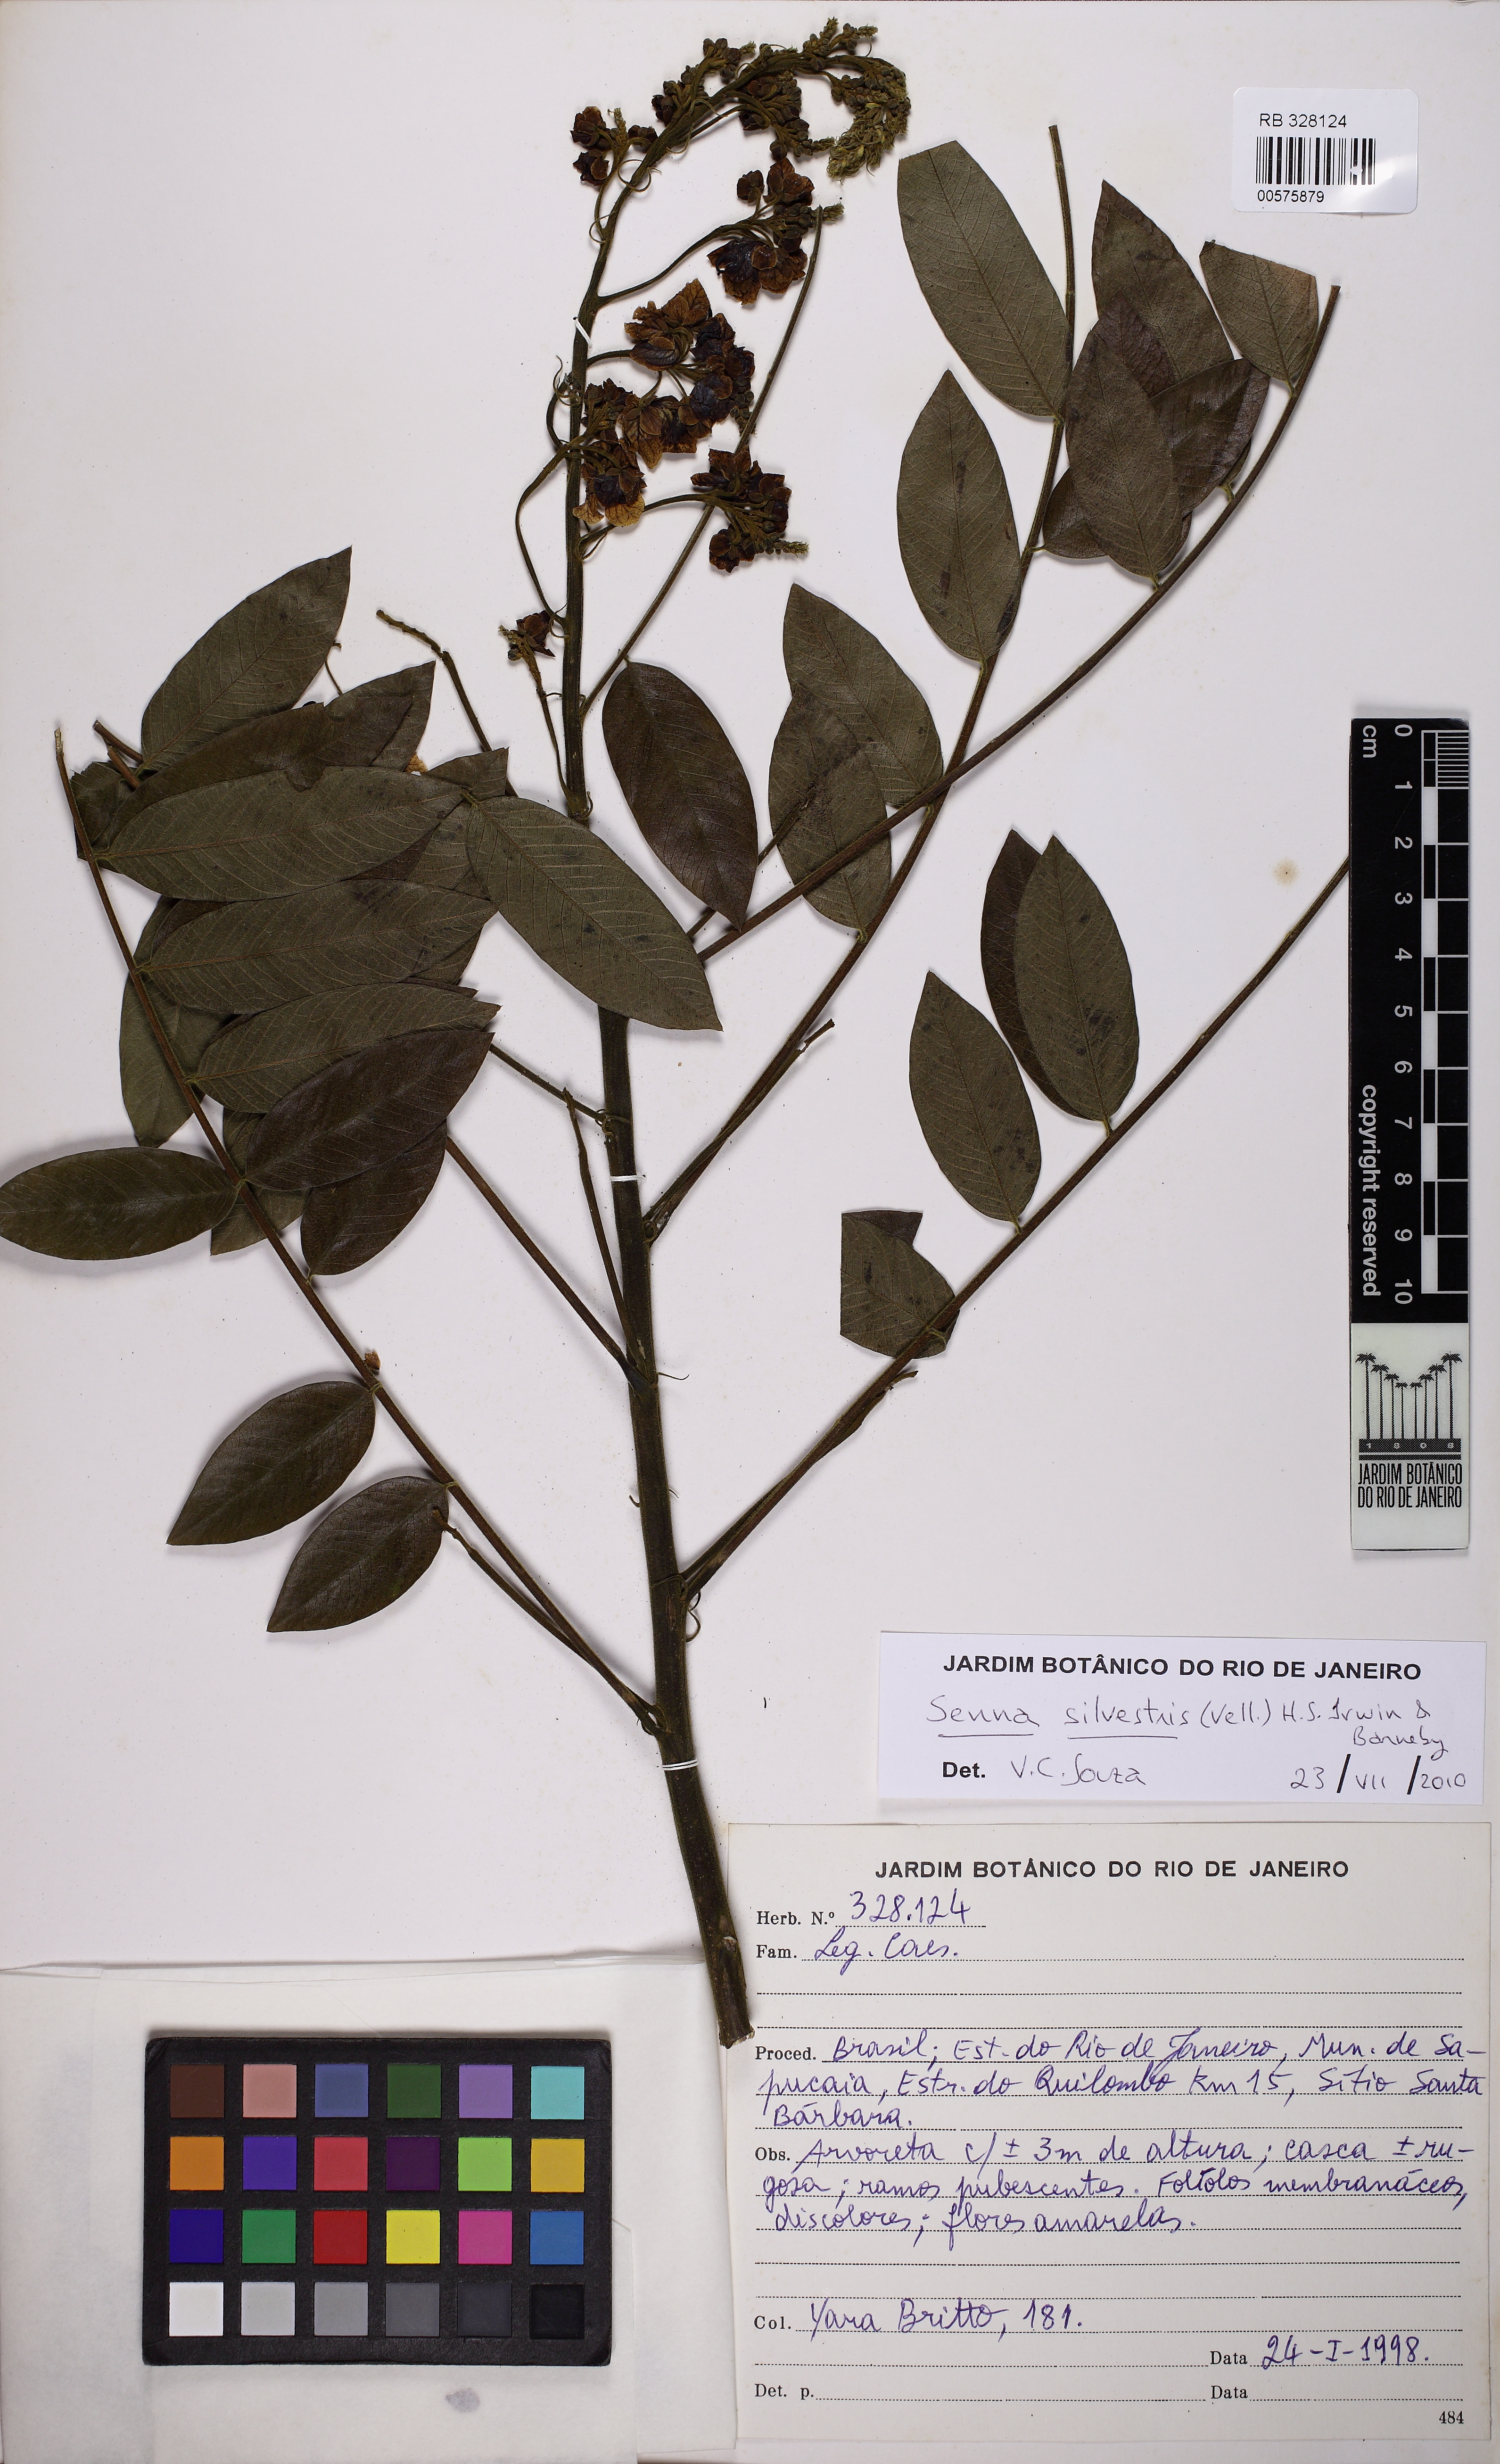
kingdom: Plantae
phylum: Tracheophyta
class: Magnoliopsida
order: Fabales
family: Fabaceae
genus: Senna
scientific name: Senna silvestris
